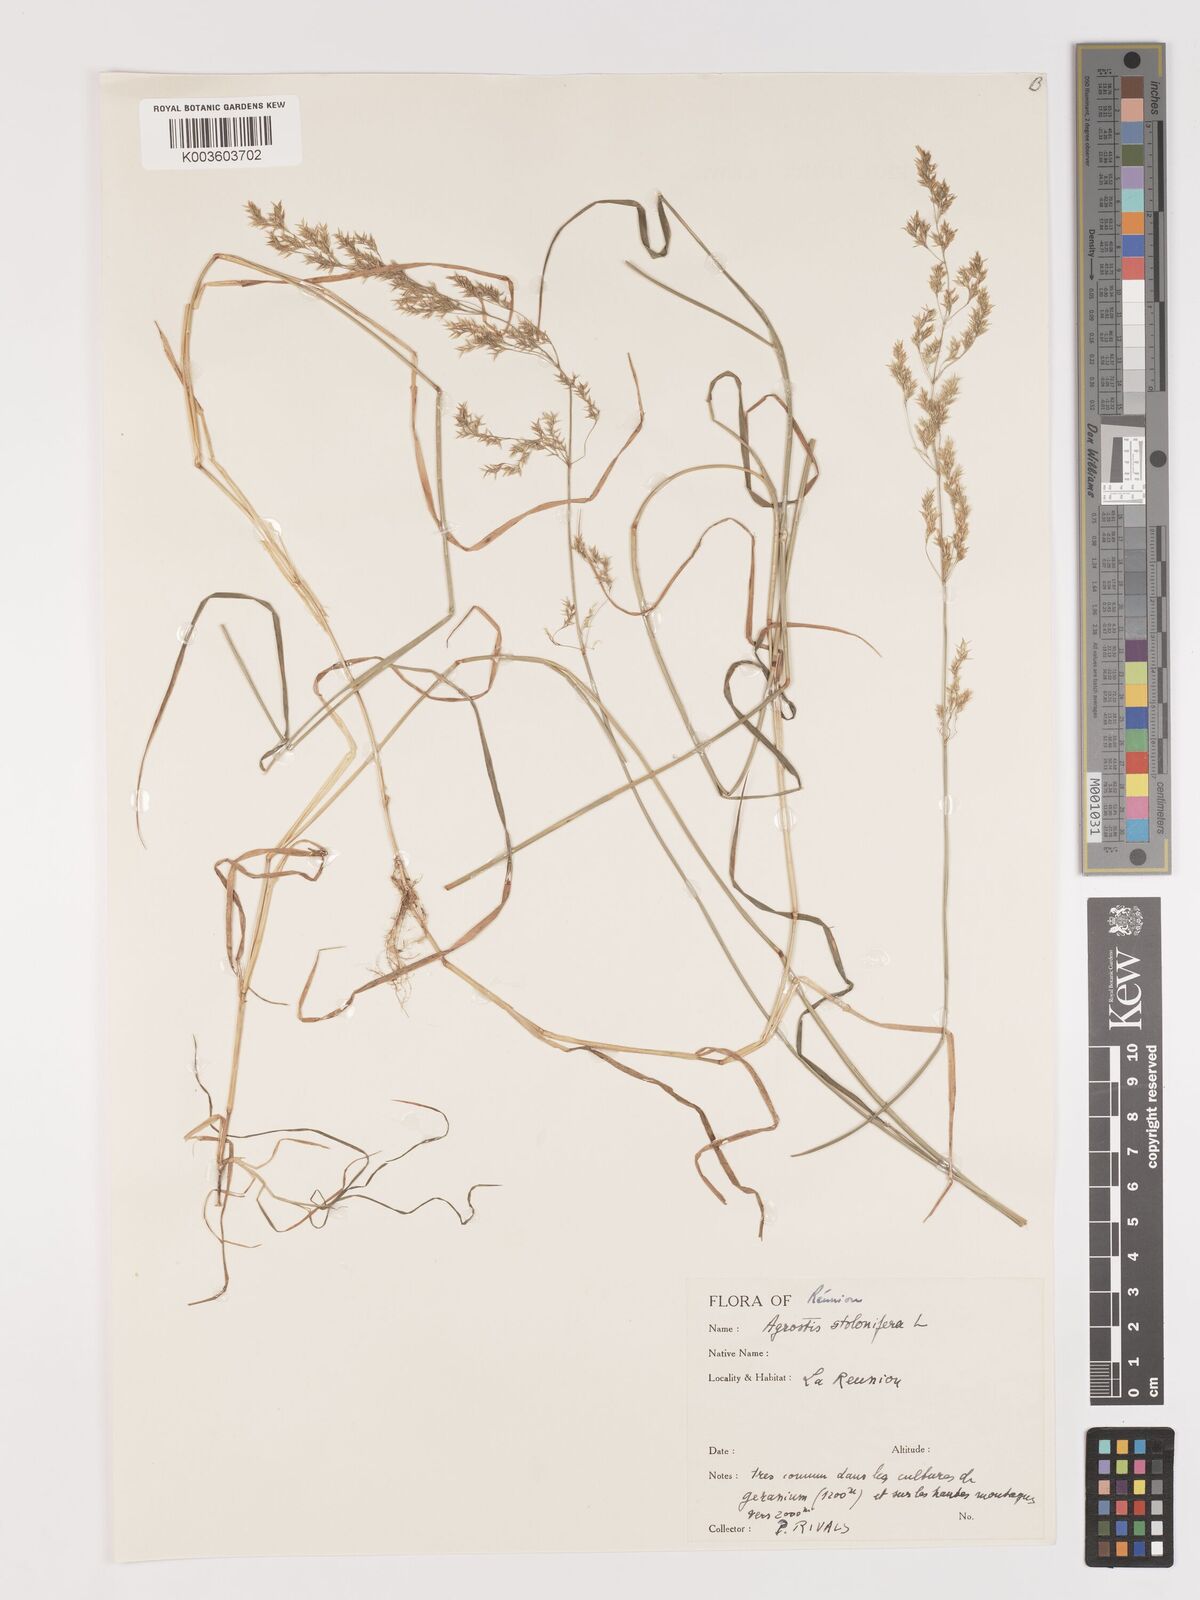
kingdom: Plantae
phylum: Tracheophyta
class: Liliopsida
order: Poales
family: Poaceae
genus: Agrostis
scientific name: Agrostis stolonifera
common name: Creeping bentgrass
